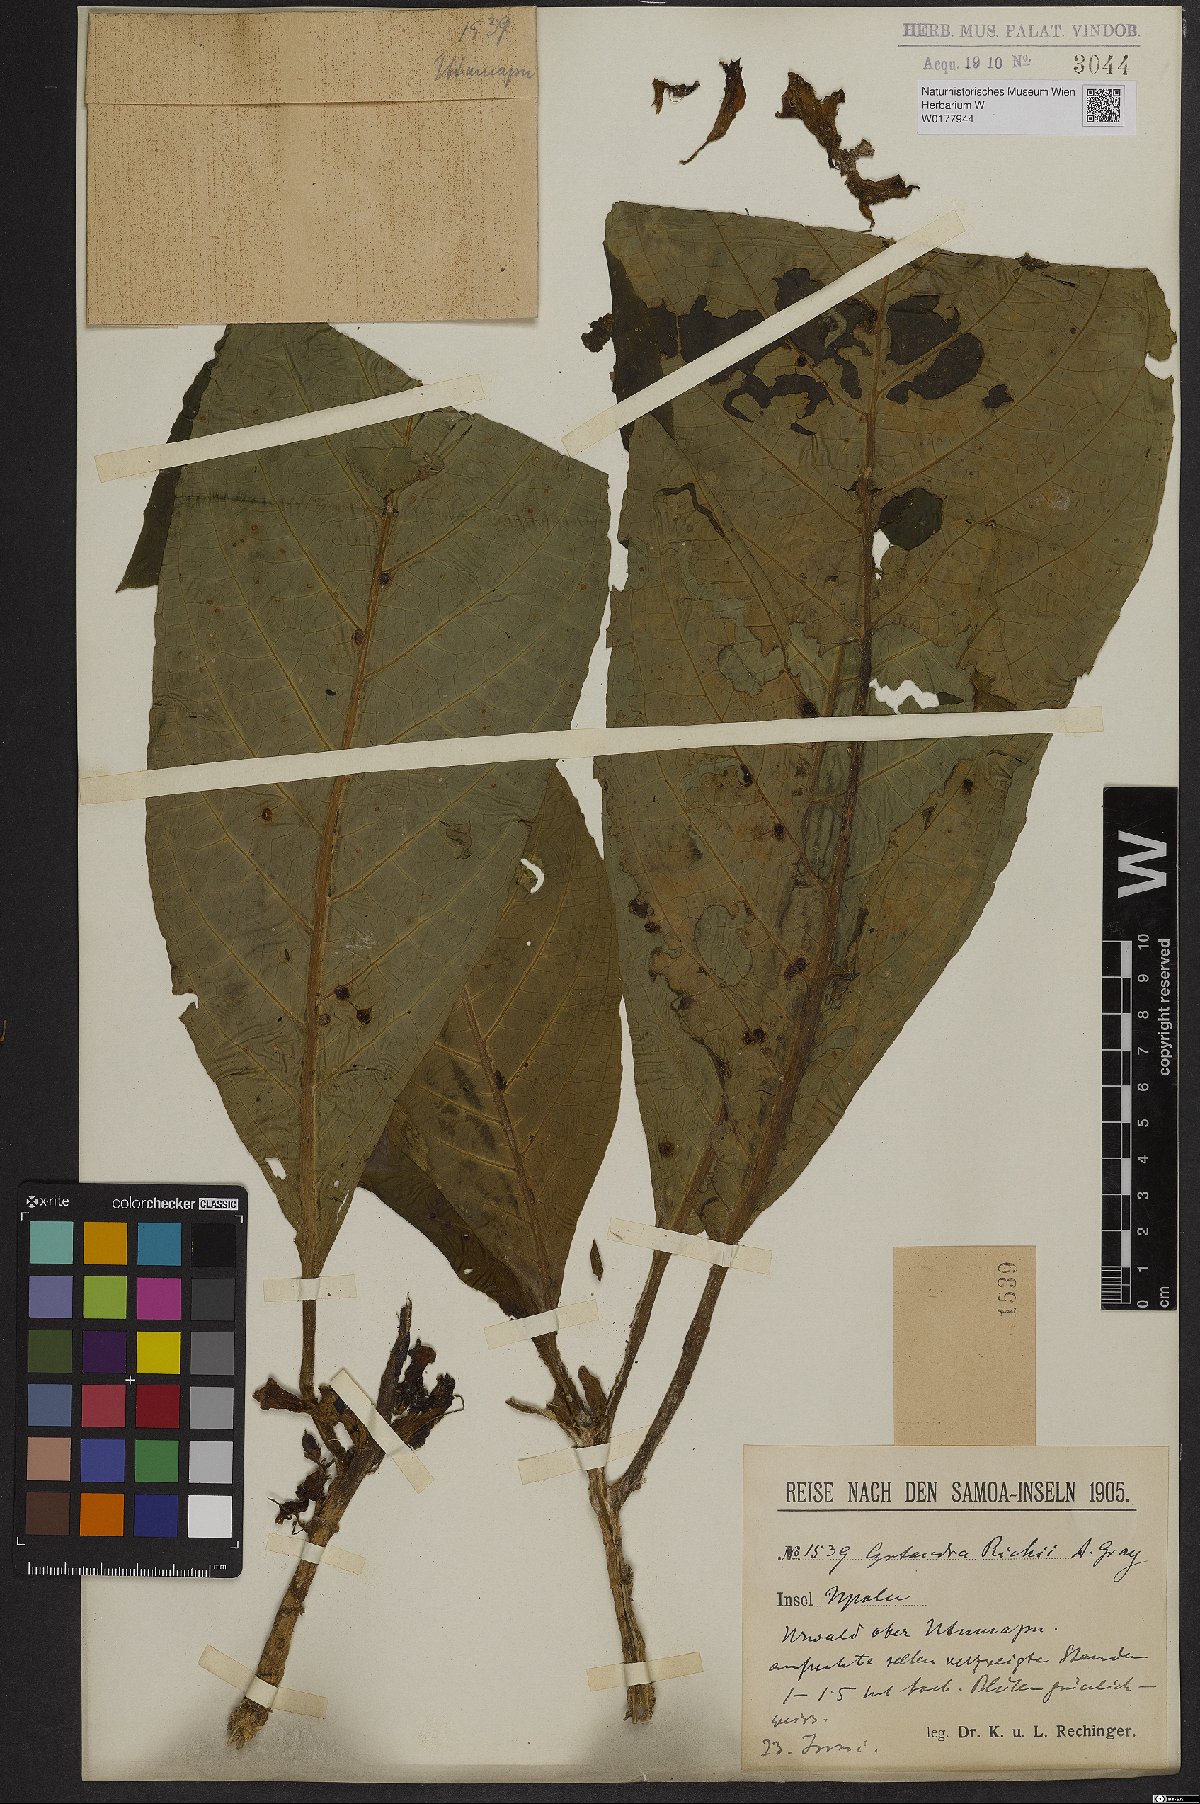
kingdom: Plantae
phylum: Tracheophyta
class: Magnoliopsida
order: Lamiales
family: Gesneriaceae
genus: Cyrtandra
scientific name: Cyrtandra richii
